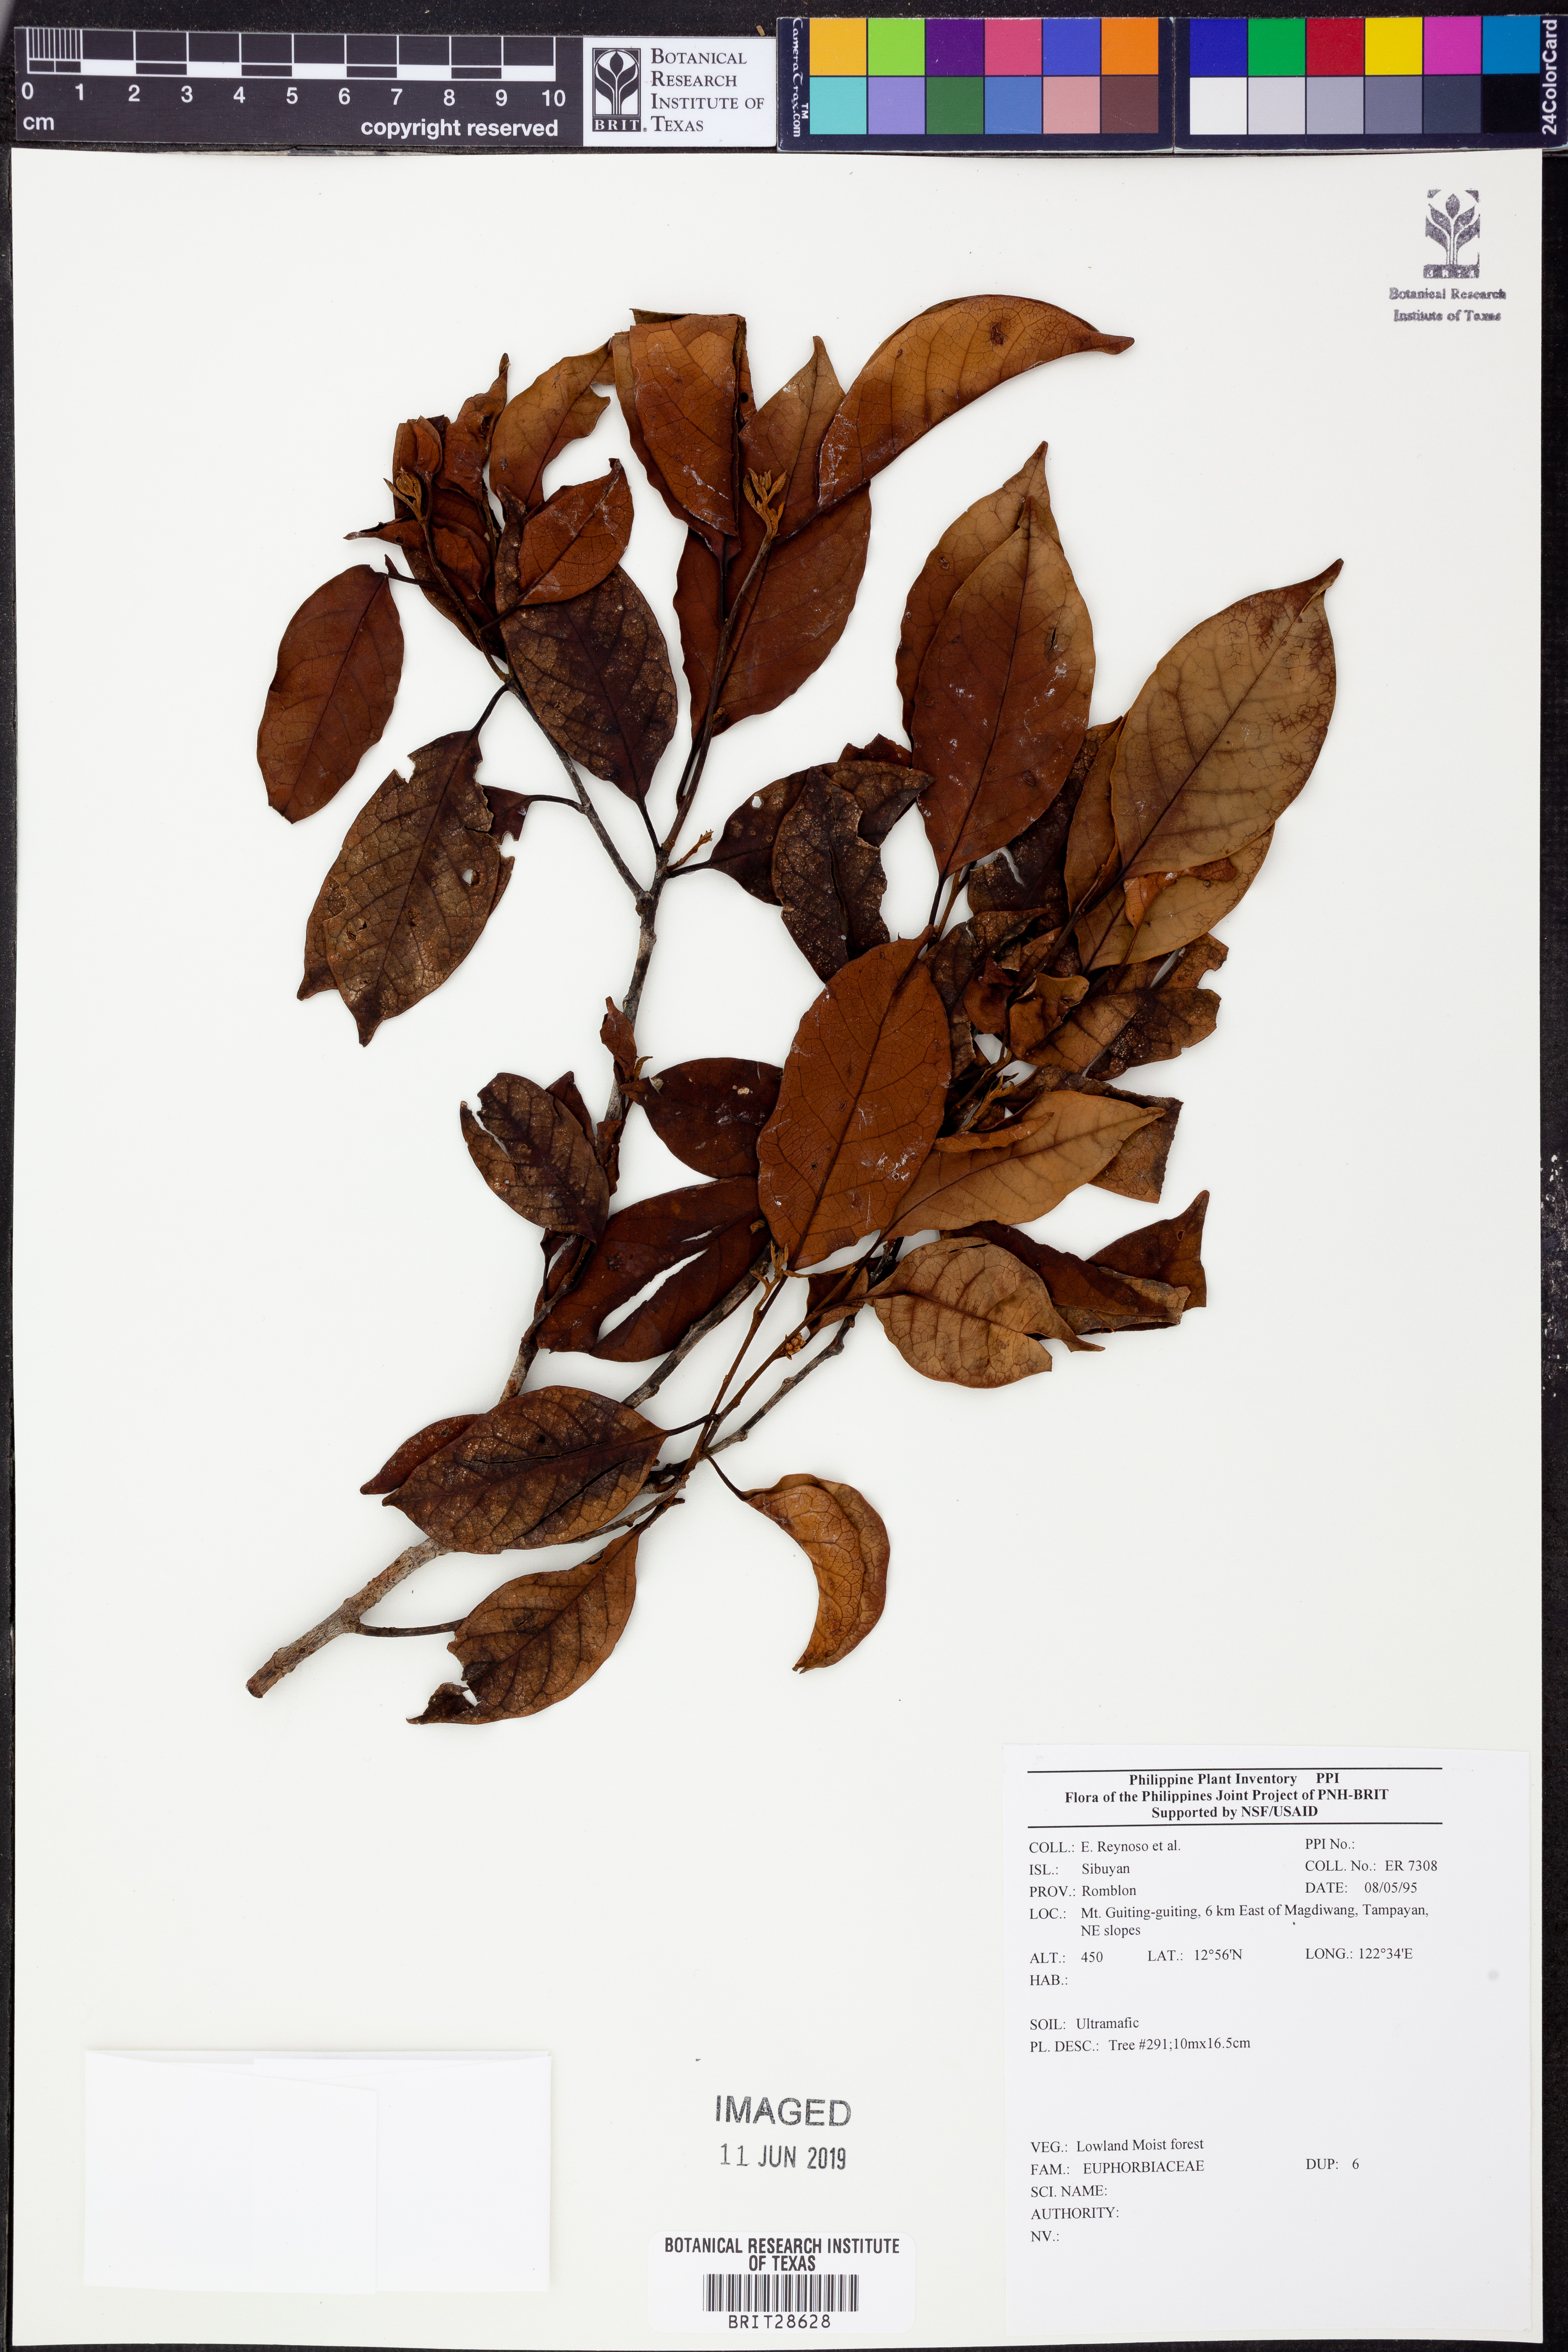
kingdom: Plantae
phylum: Tracheophyta
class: Magnoliopsida
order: Malpighiales
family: Euphorbiaceae
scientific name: Euphorbiaceae
